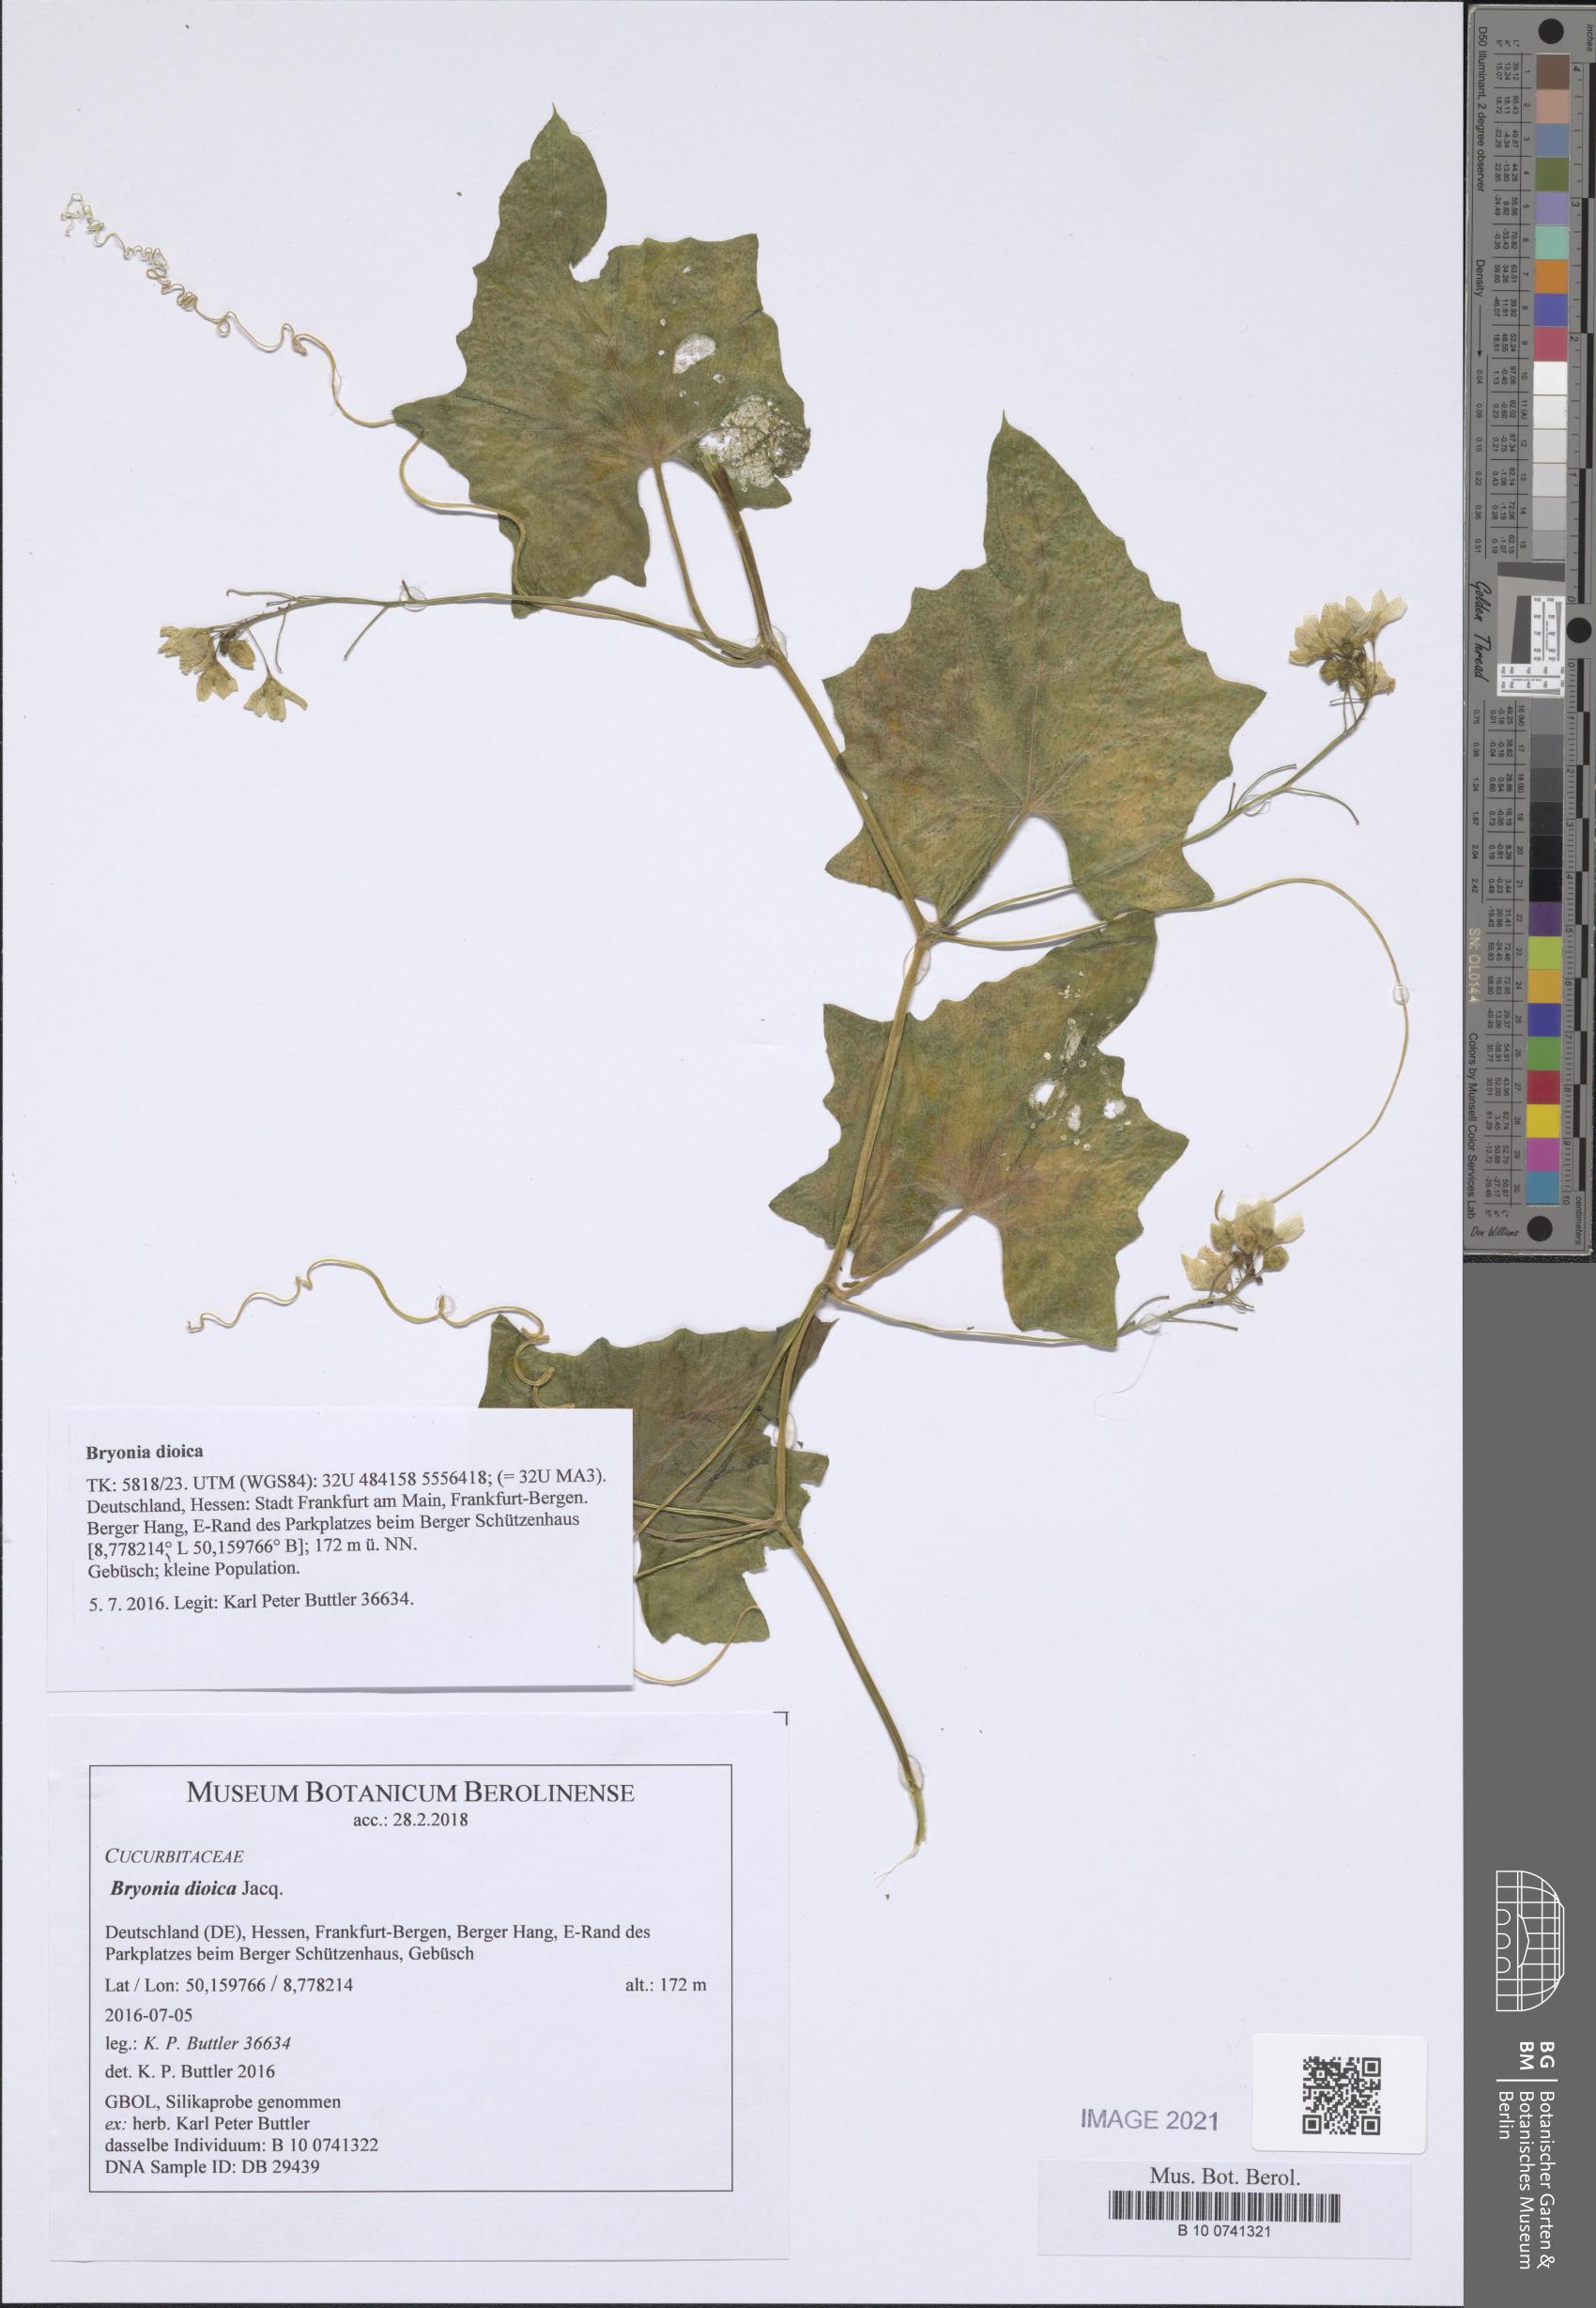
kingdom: Plantae
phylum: Tracheophyta
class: Magnoliopsida
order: Cucurbitales
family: Cucurbitaceae
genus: Bryonia
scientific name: Bryonia dioica
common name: White bryony
